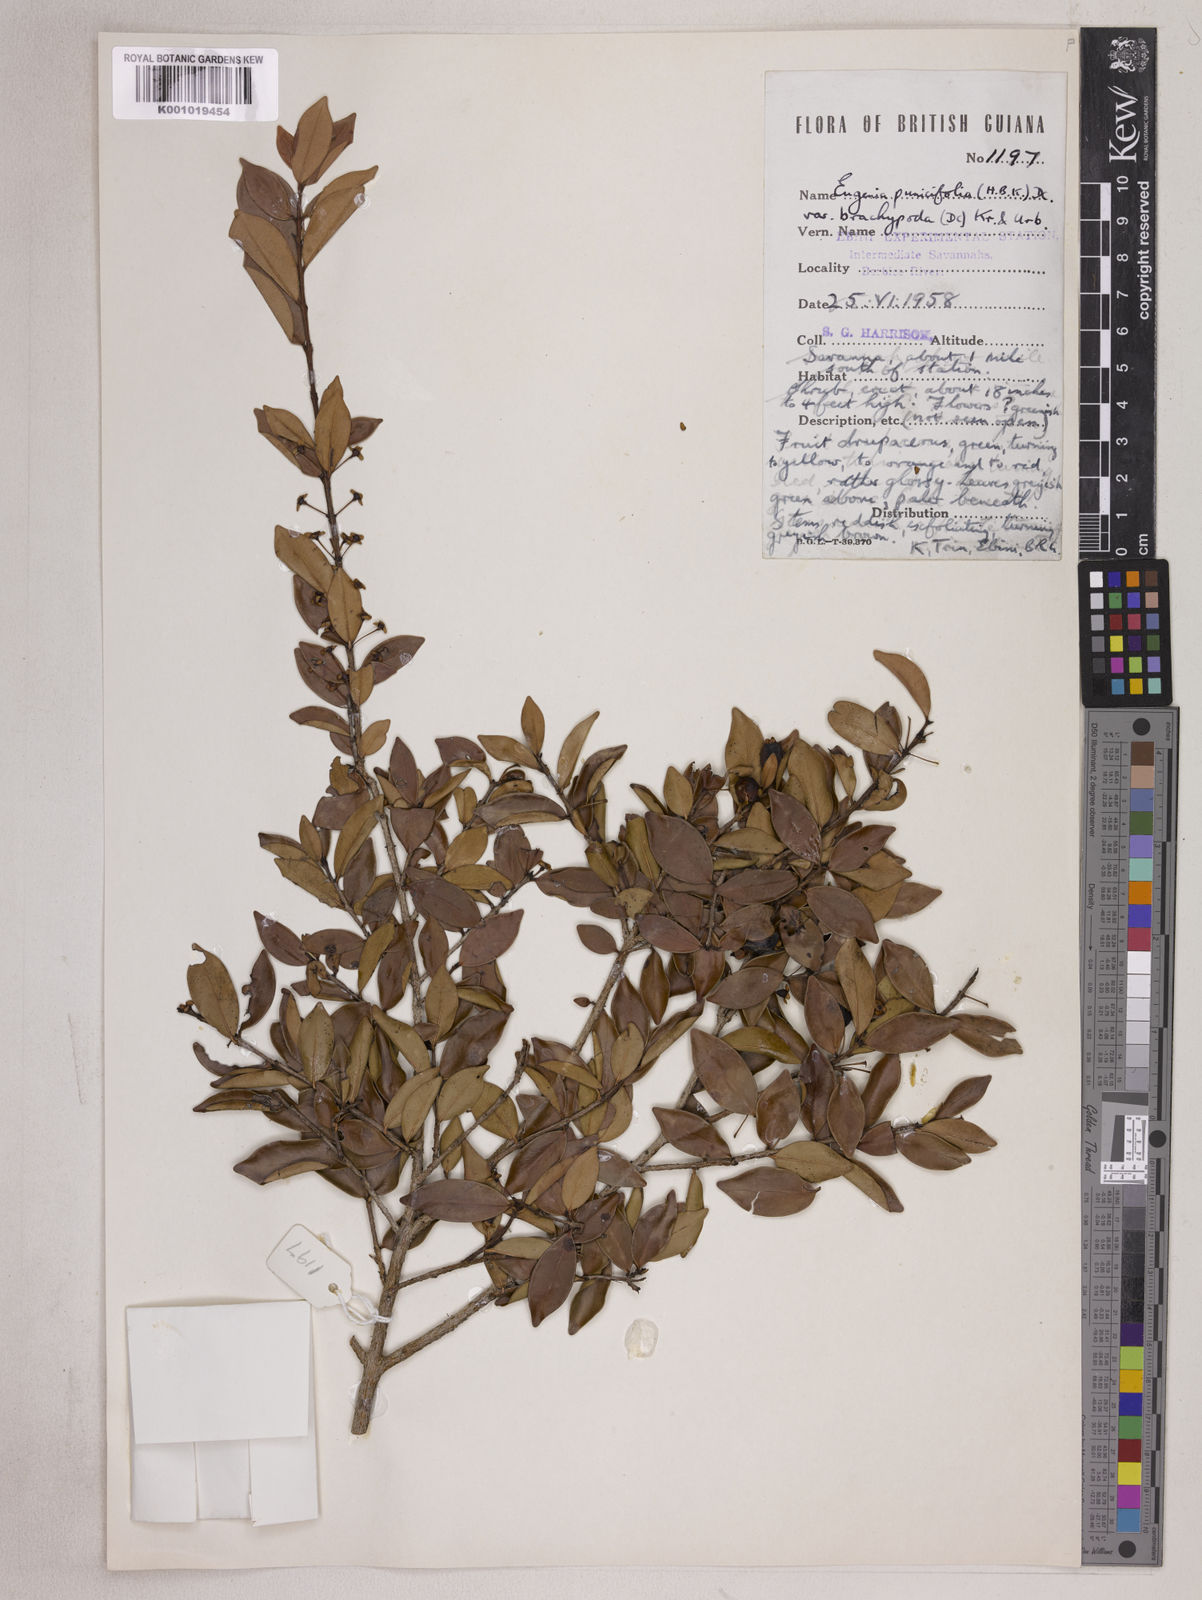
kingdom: Plantae
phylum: Tracheophyta
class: Magnoliopsida
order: Myrtales
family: Myrtaceae
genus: Eugenia
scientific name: Eugenia punicifolia
